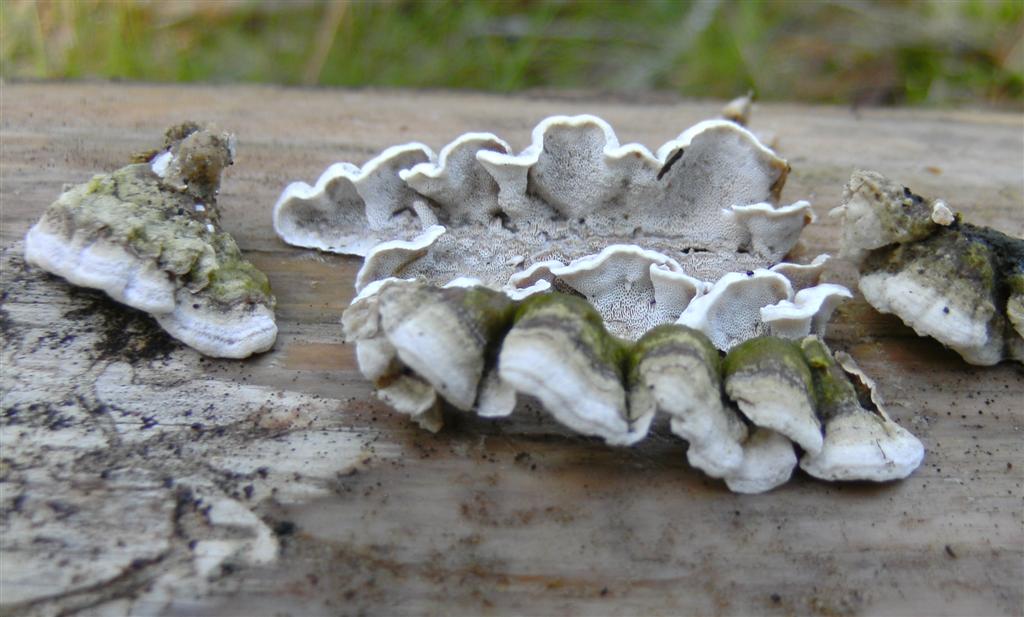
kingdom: Fungi
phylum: Basidiomycota
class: Agaricomycetes
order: Polyporales
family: Incrustoporiaceae
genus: Skeletocutis
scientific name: Skeletocutis carneogrisea
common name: rødgrå krystalporesvamp
